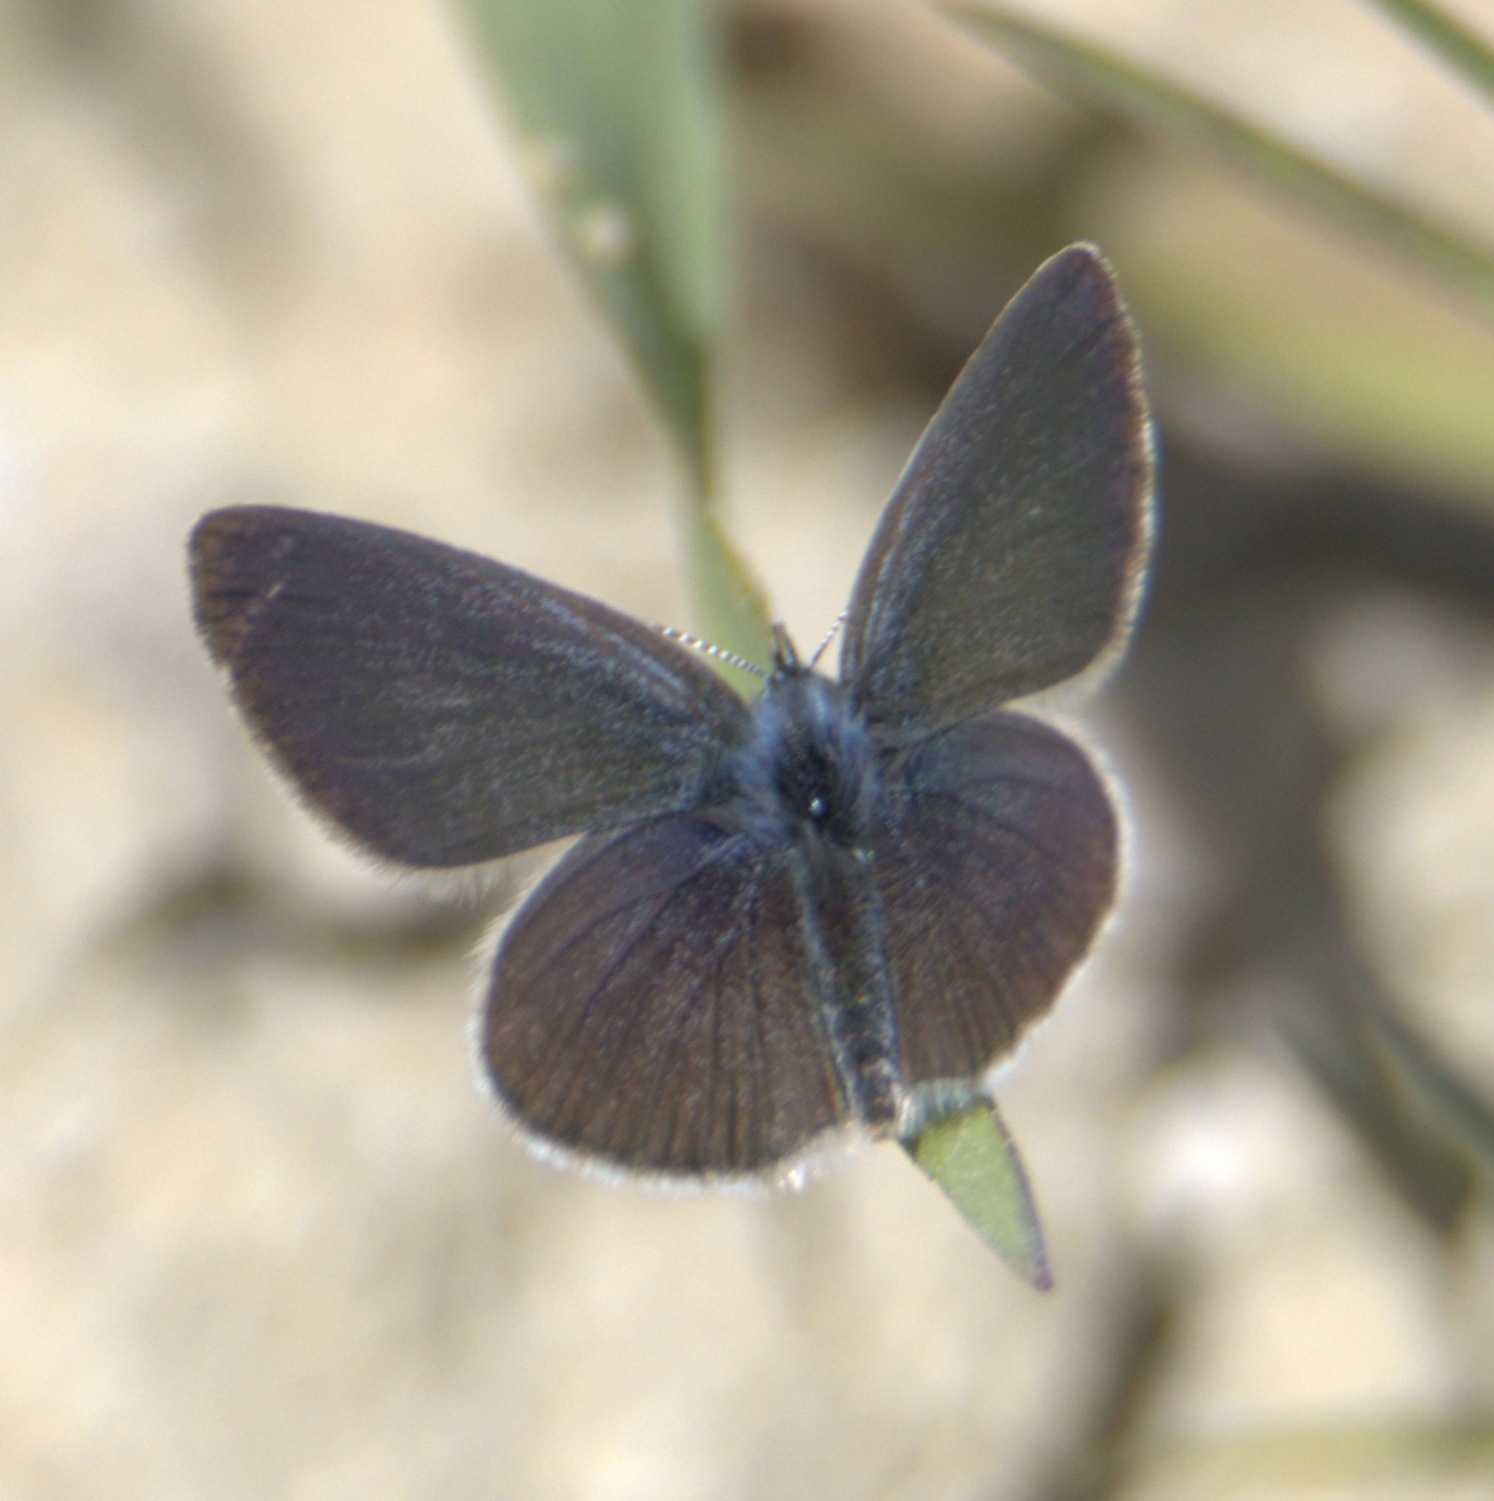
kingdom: Animalia
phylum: Arthropoda
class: Insecta
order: Lepidoptera
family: Lycaenidae
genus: Cupido
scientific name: Cupido minimus
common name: Dværgblåfugl
